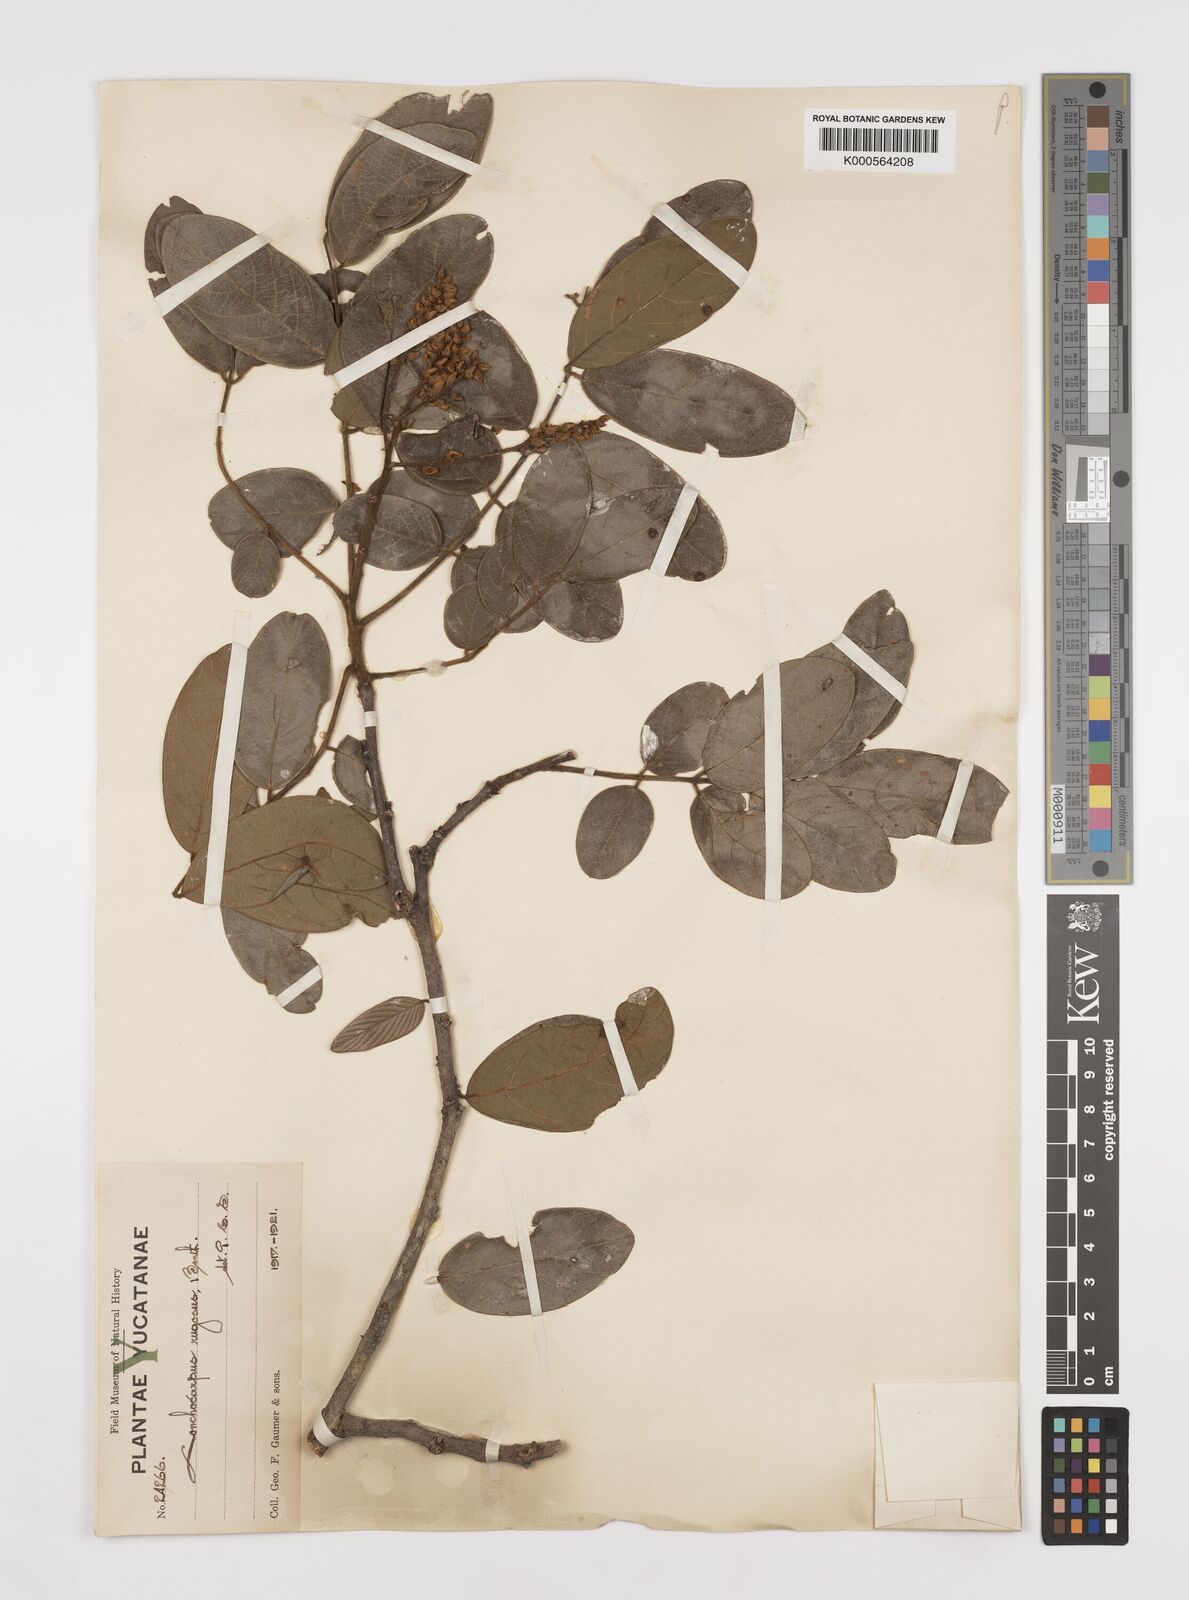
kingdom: Plantae
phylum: Tracheophyta
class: Magnoliopsida
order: Fabales
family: Fabaceae
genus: Lonchocarpus
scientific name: Lonchocarpus rugosus
